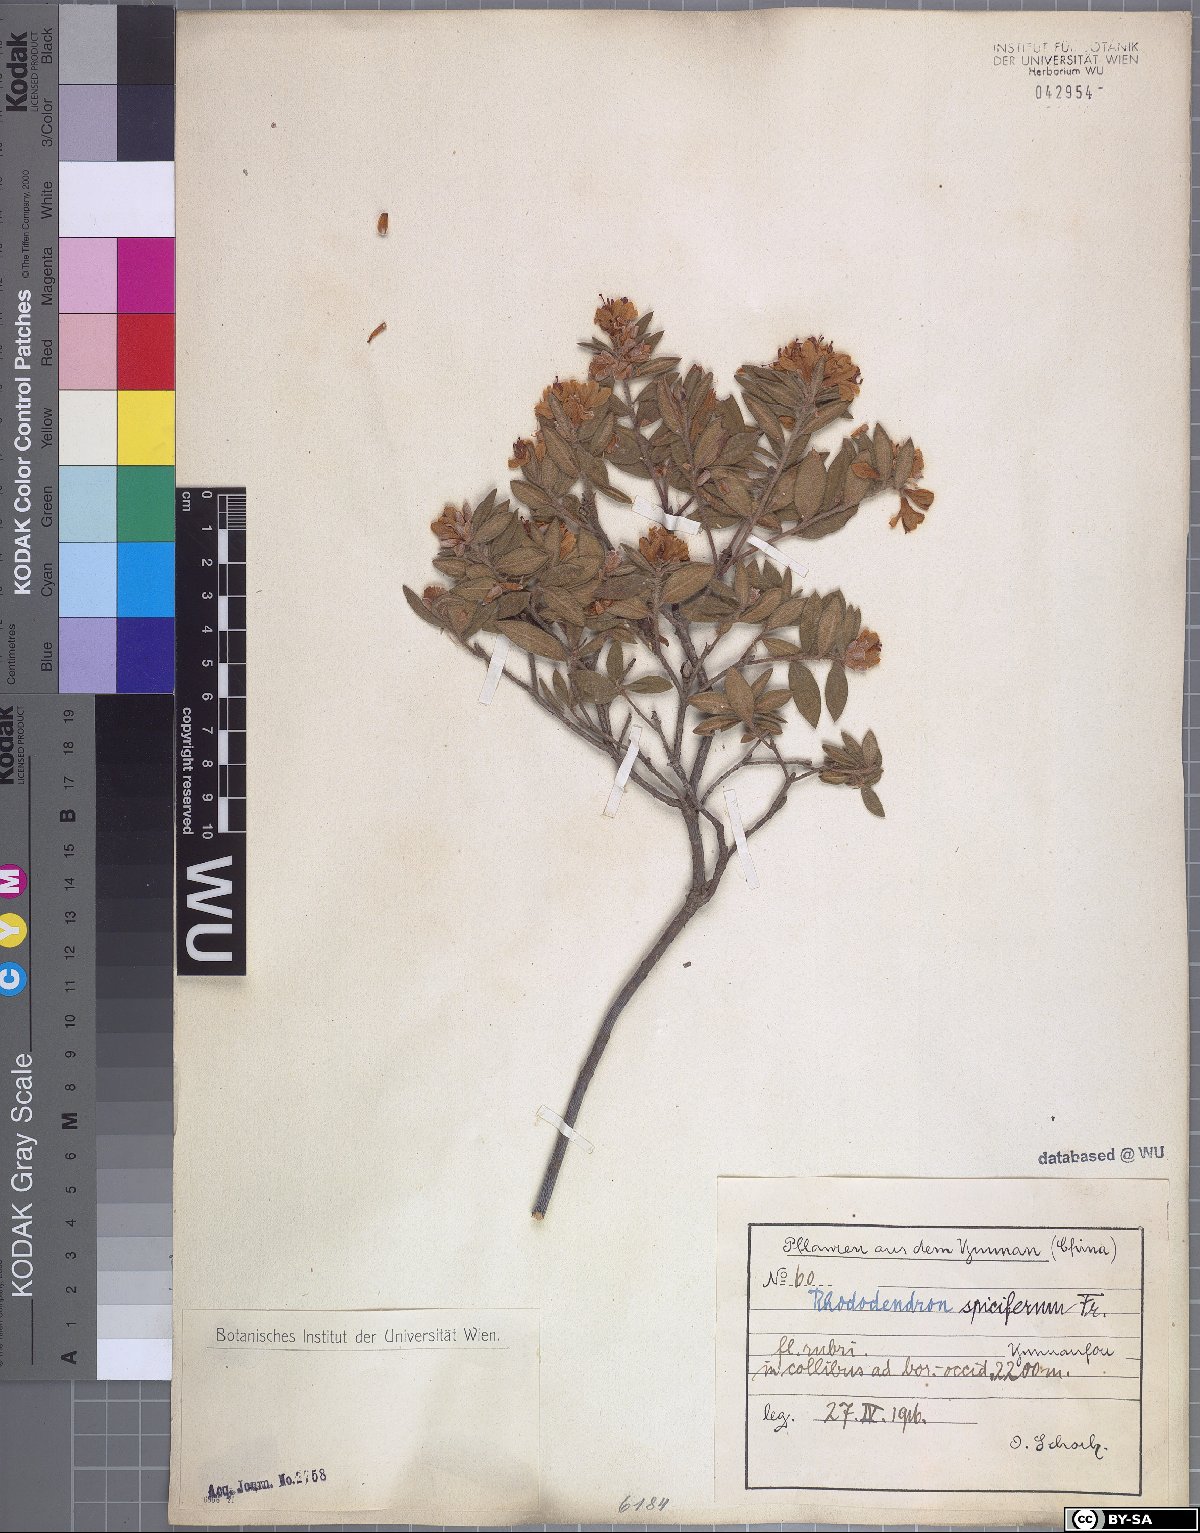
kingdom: Plantae
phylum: Tracheophyta
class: Magnoliopsida
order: Ericales
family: Ericaceae
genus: Rhododendron
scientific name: Rhododendron spiciferum
